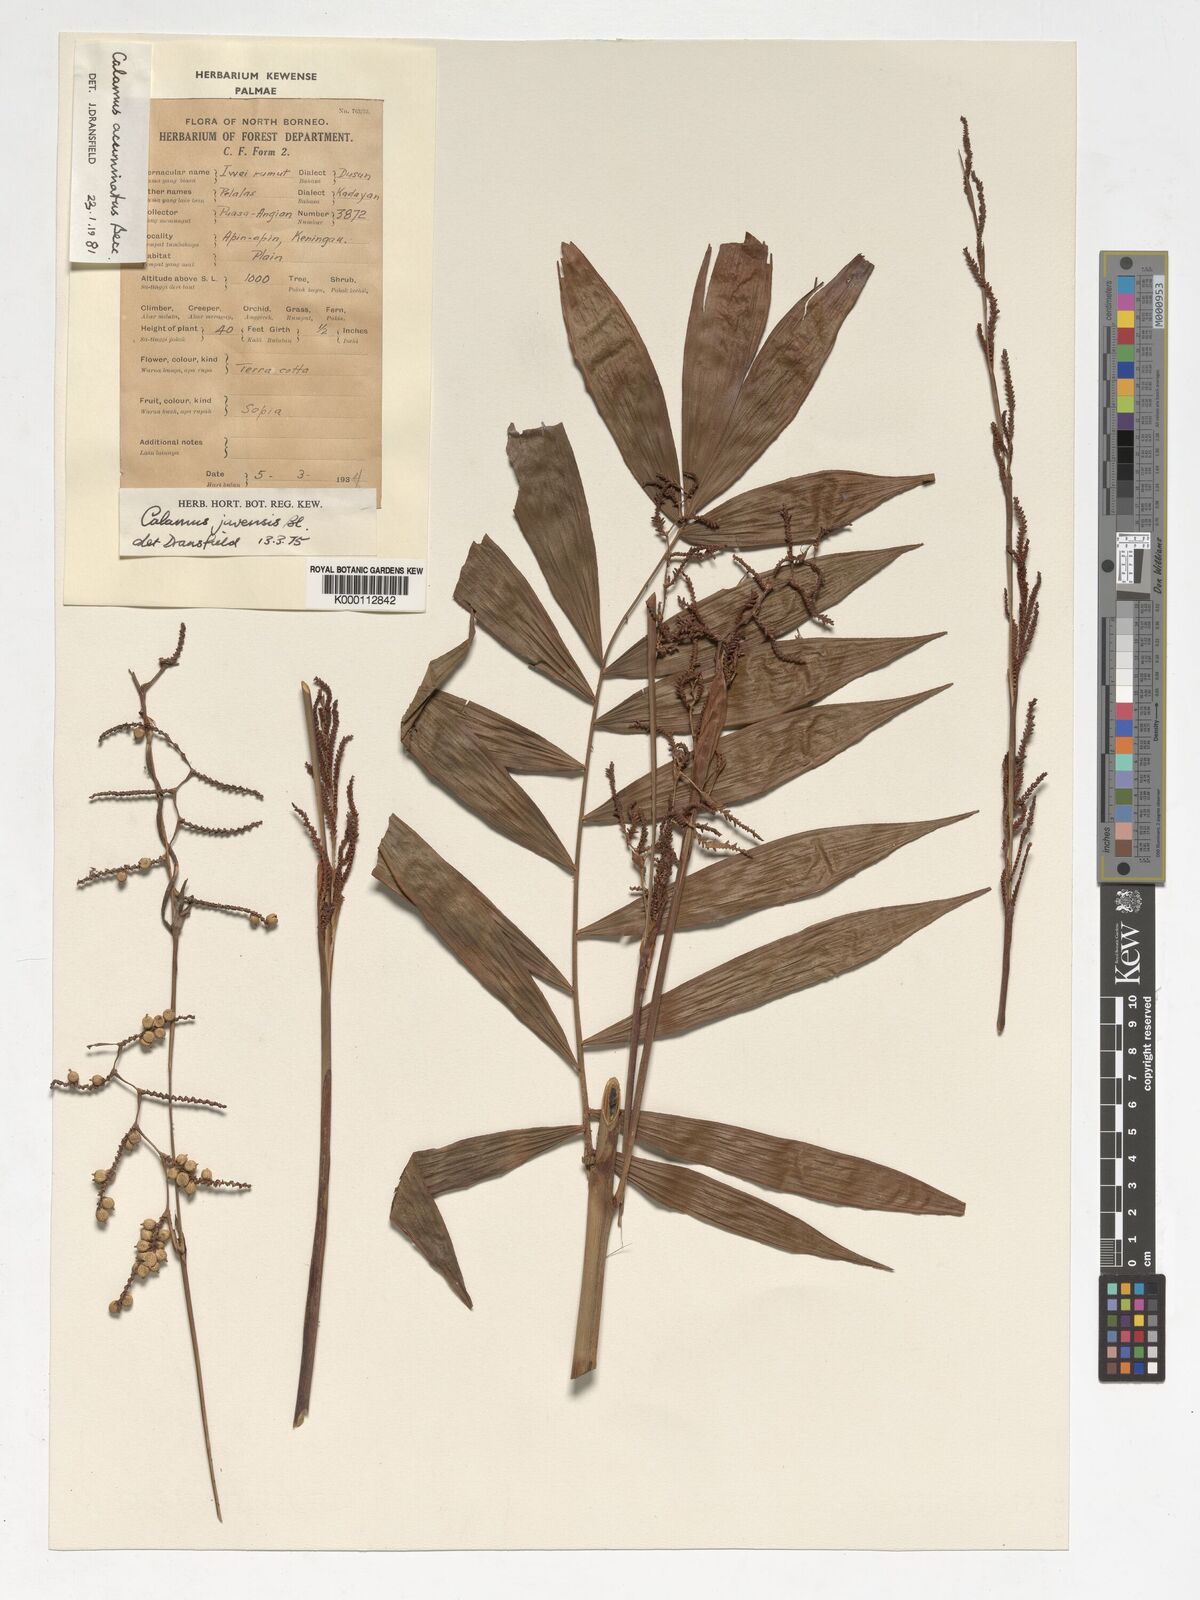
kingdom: Plantae
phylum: Tracheophyta
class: Liliopsida
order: Arecales
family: Arecaceae
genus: Calamus
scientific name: Calamus javensis
